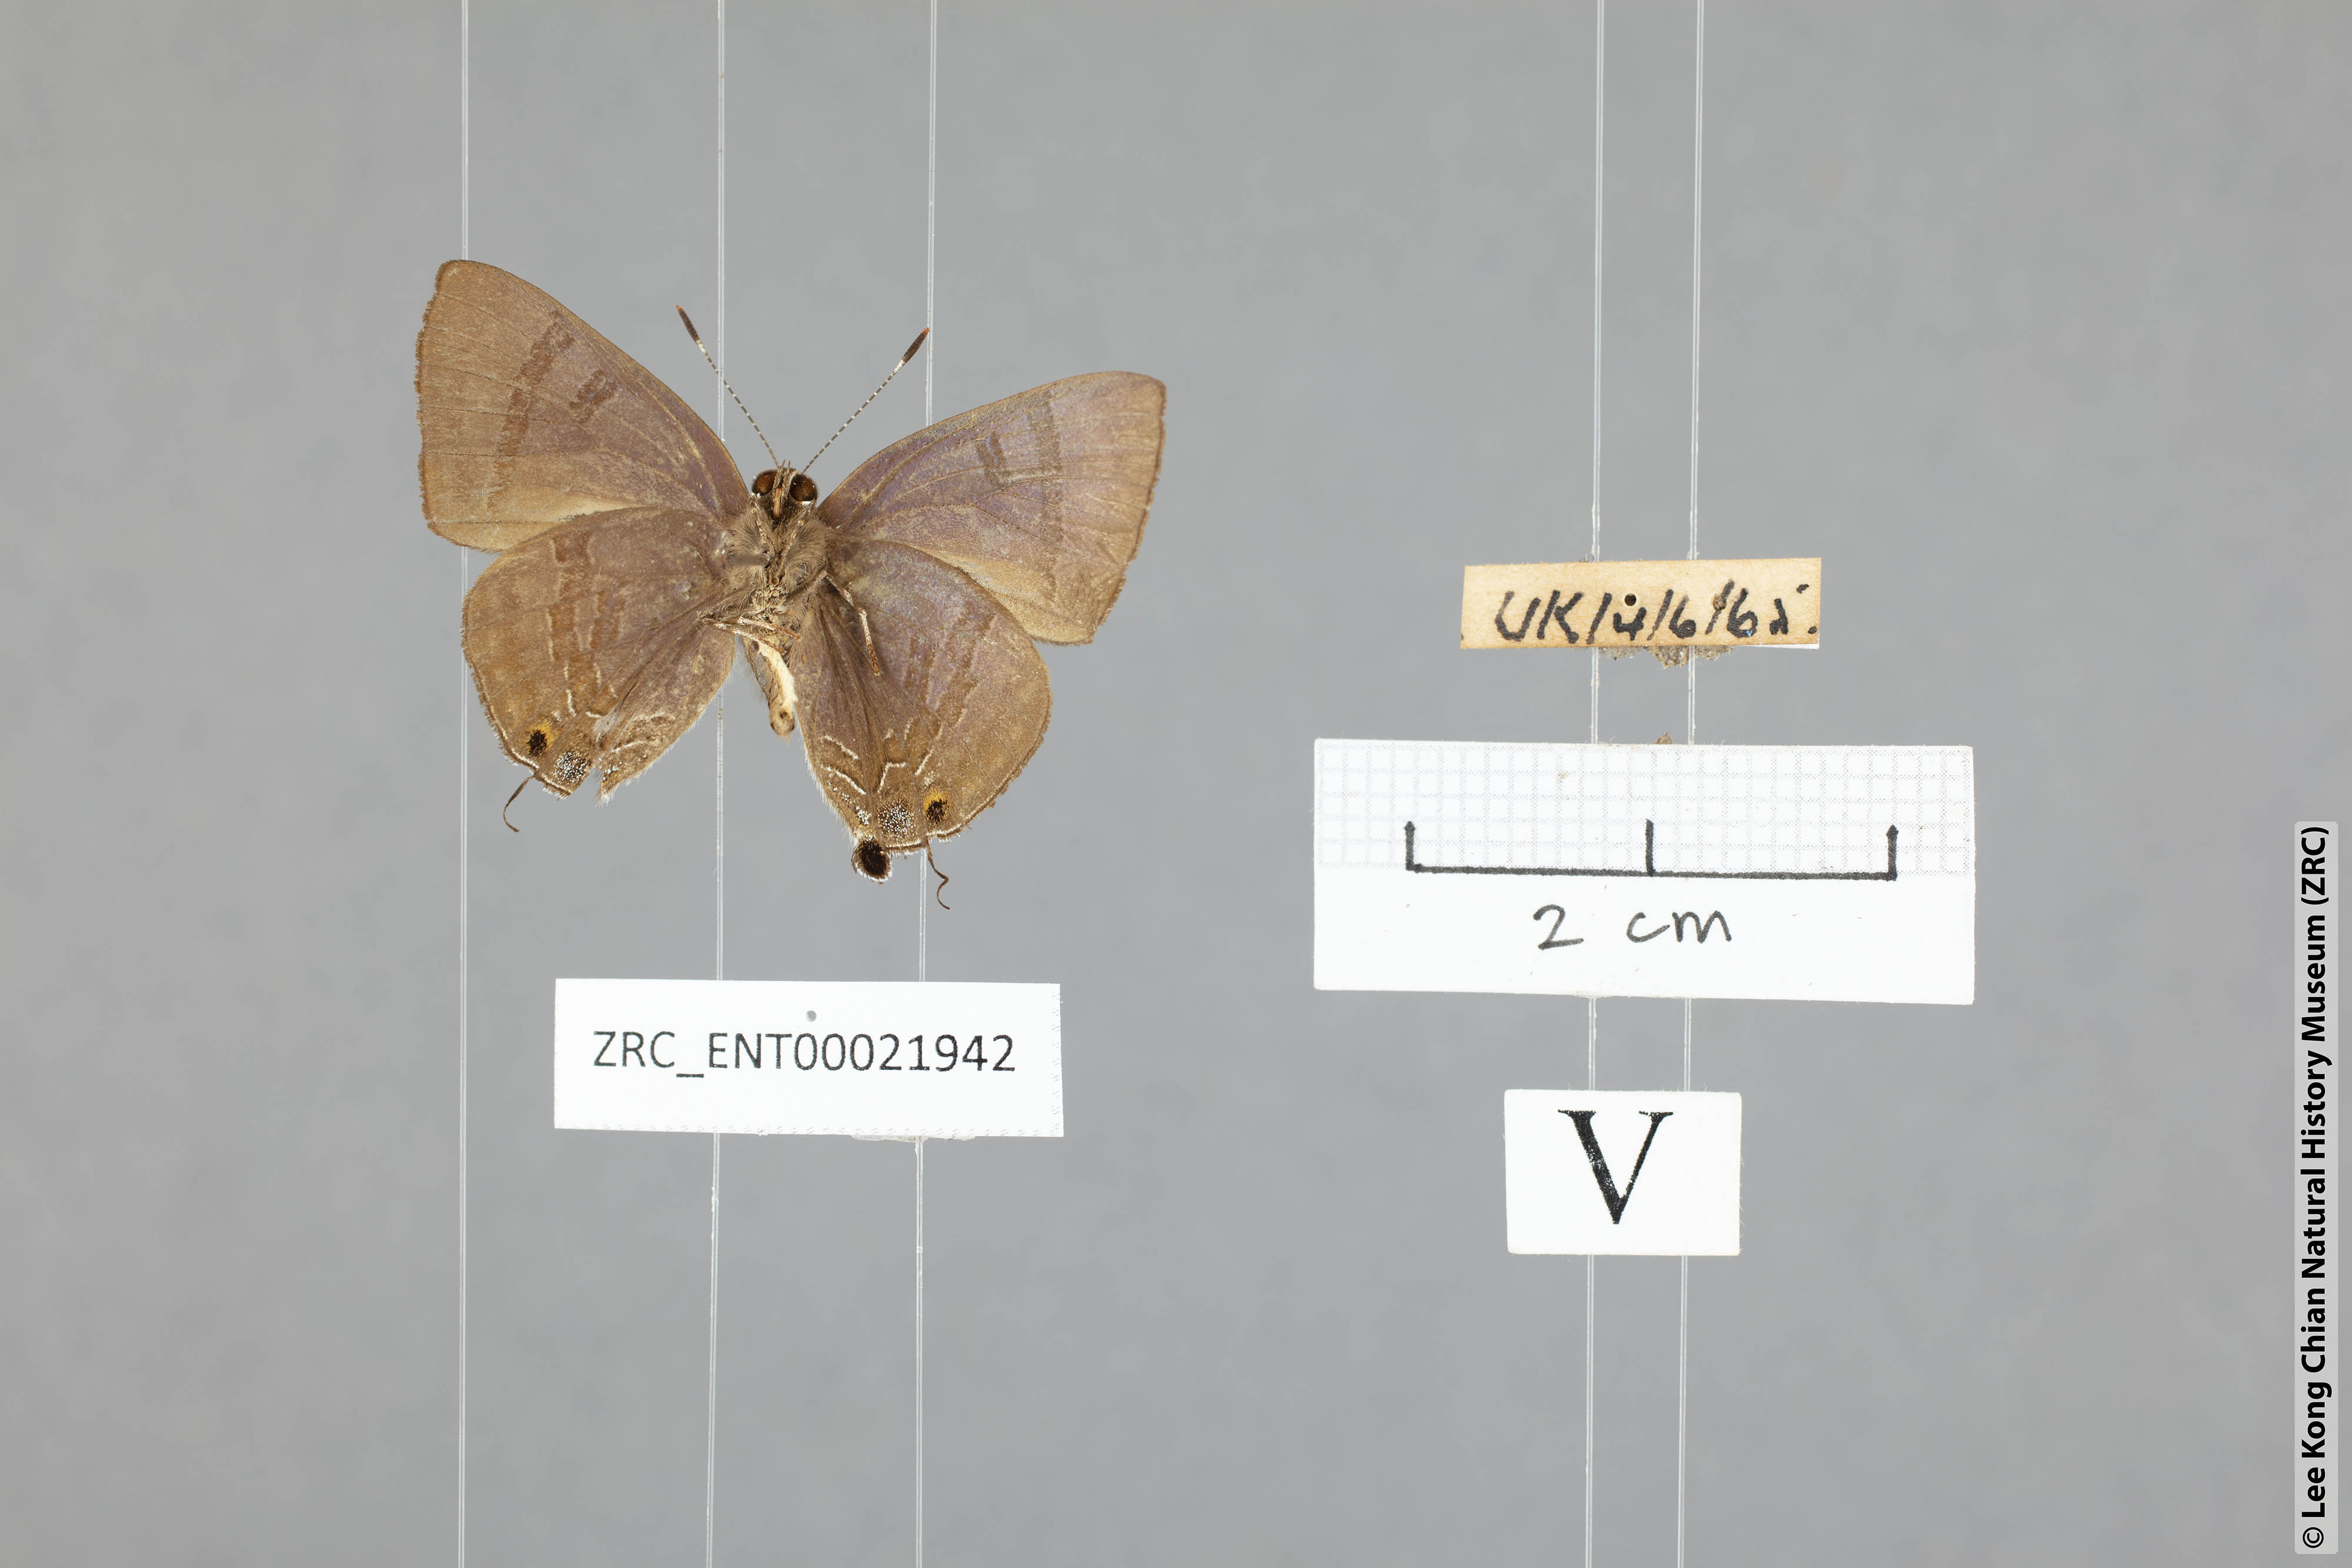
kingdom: Animalia
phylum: Arthropoda
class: Insecta
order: Lepidoptera
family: Lycaenidae
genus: Rapala
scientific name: Rapala varuna
